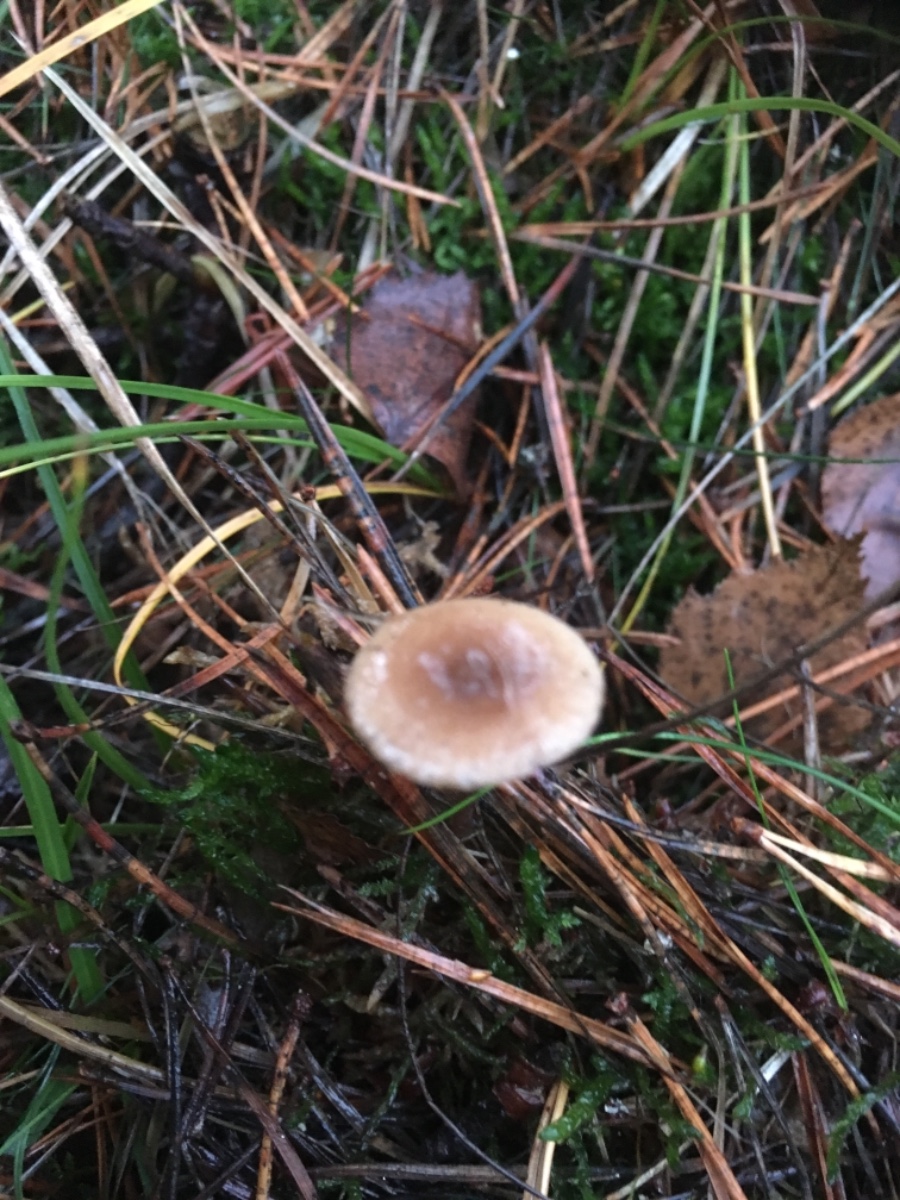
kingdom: Fungi
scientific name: Fungi
